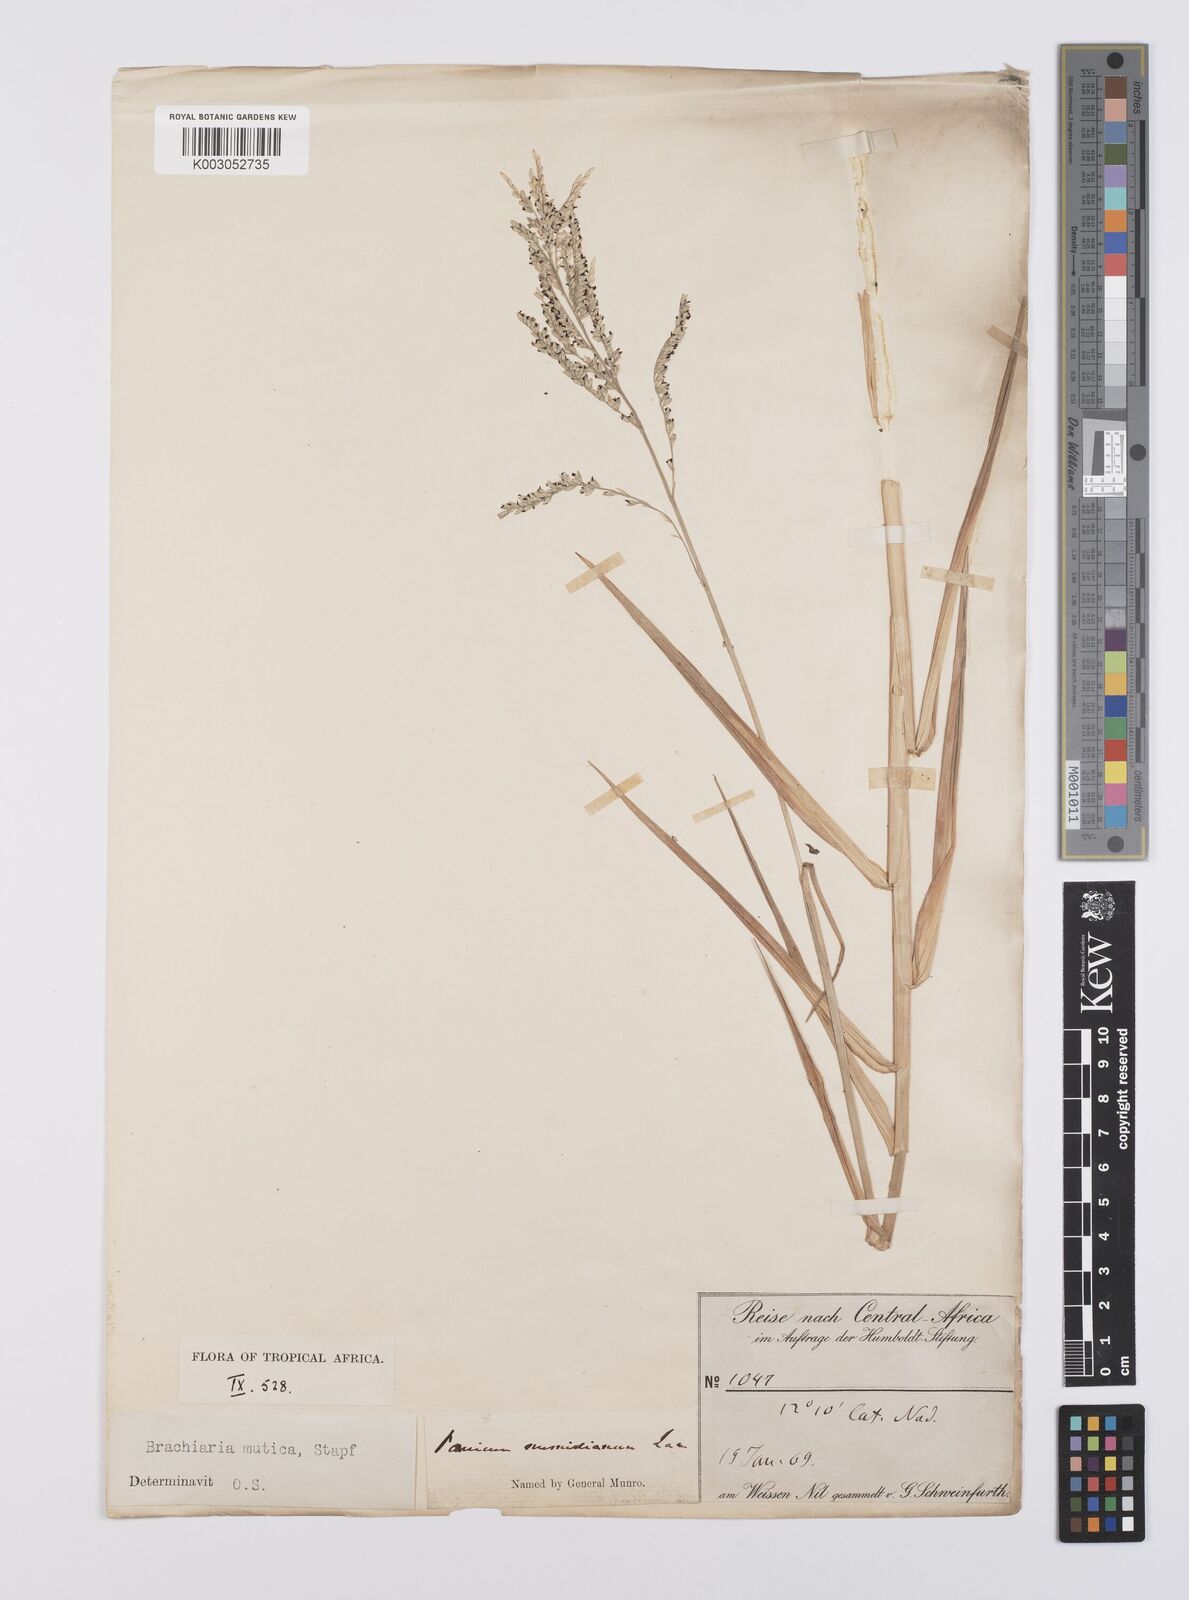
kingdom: Plantae
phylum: Tracheophyta
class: Liliopsida
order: Poales
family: Poaceae
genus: Urochloa
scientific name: Urochloa mutica
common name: Para grass
